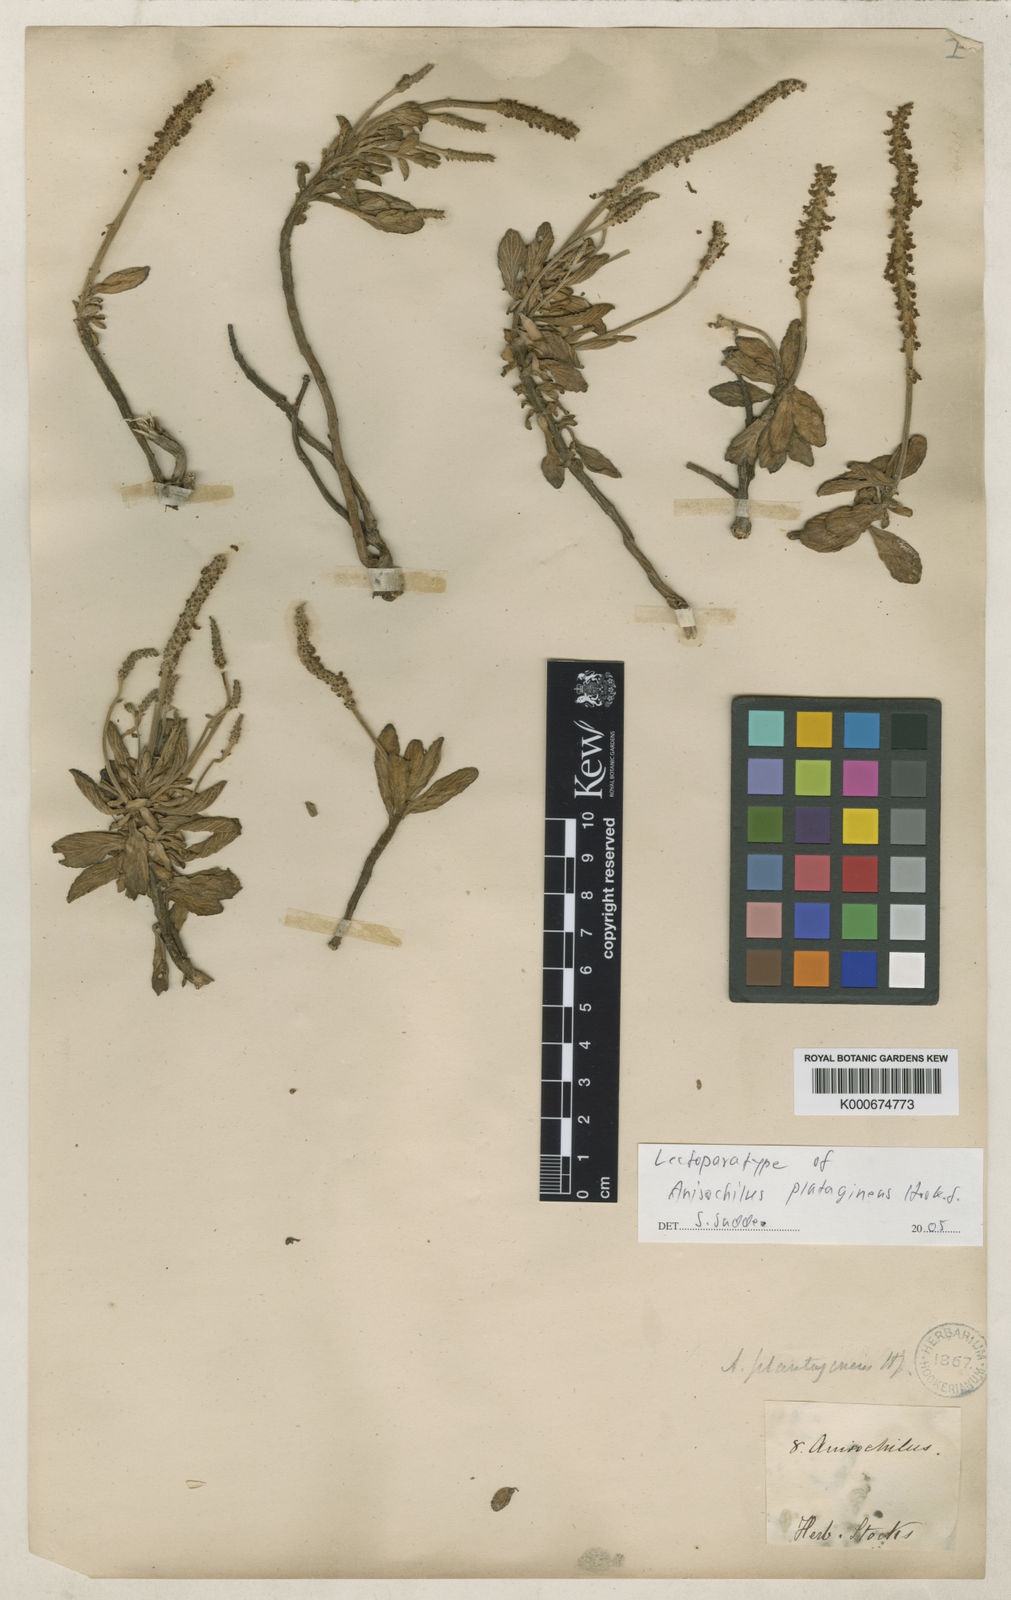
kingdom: Plantae
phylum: Tracheophyta
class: Magnoliopsida
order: Lamiales
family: Lamiaceae
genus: Coleus
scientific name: Coleus plantagineus
